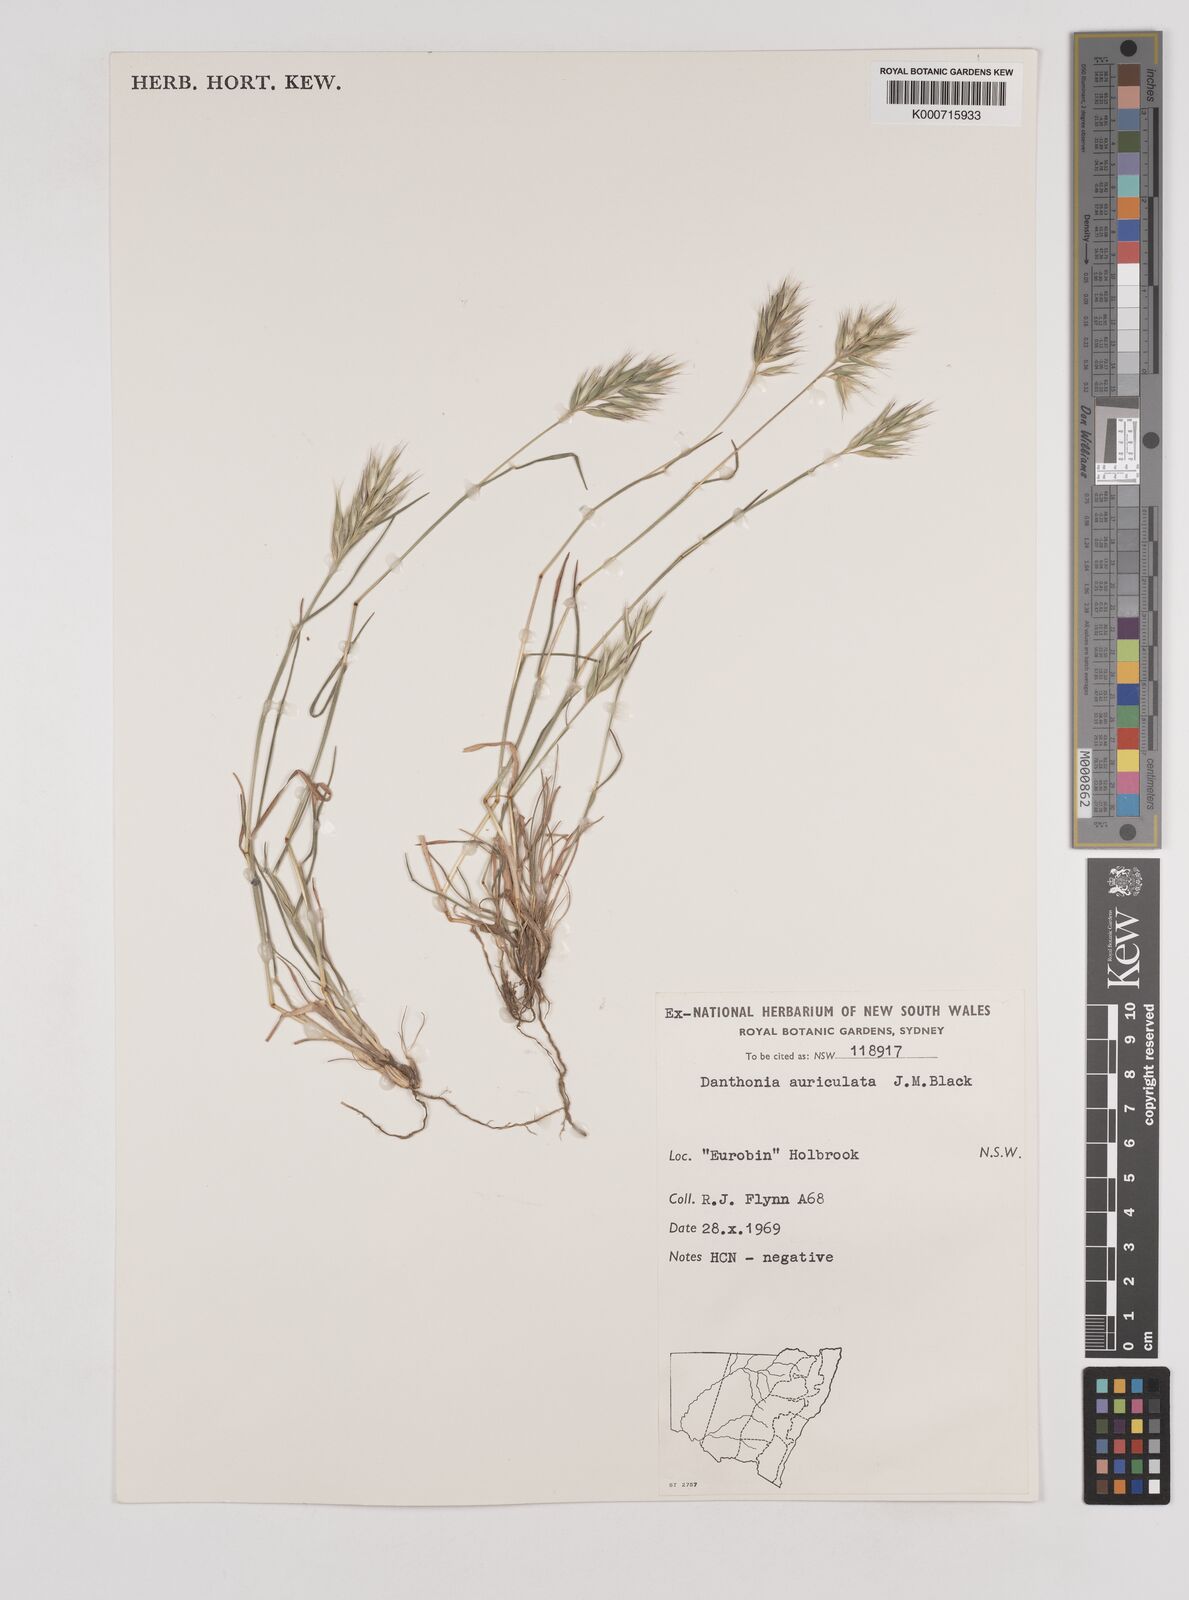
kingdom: Plantae
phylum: Tracheophyta
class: Liliopsida
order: Poales
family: Poaceae
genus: Rytidosperma
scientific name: Rytidosperma auriculatum
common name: Lobed wallaby grass
